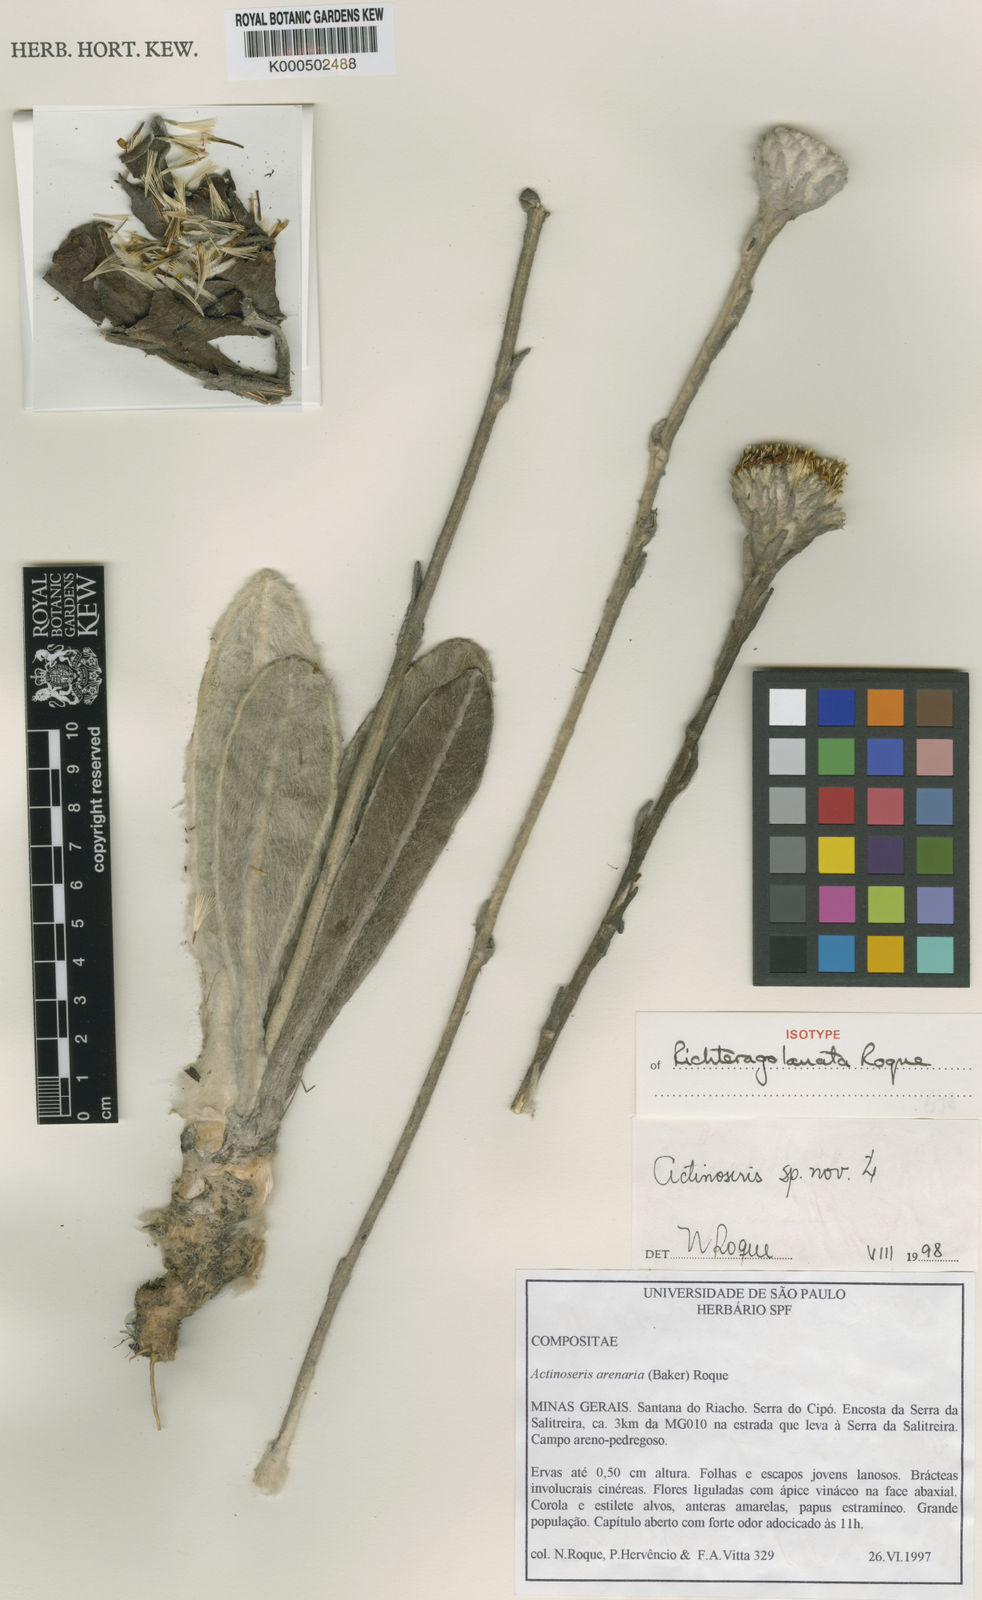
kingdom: Plantae
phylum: Tracheophyta
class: Magnoliopsida
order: Asterales
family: Asteraceae
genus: Richterago
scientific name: Richterago lanata
